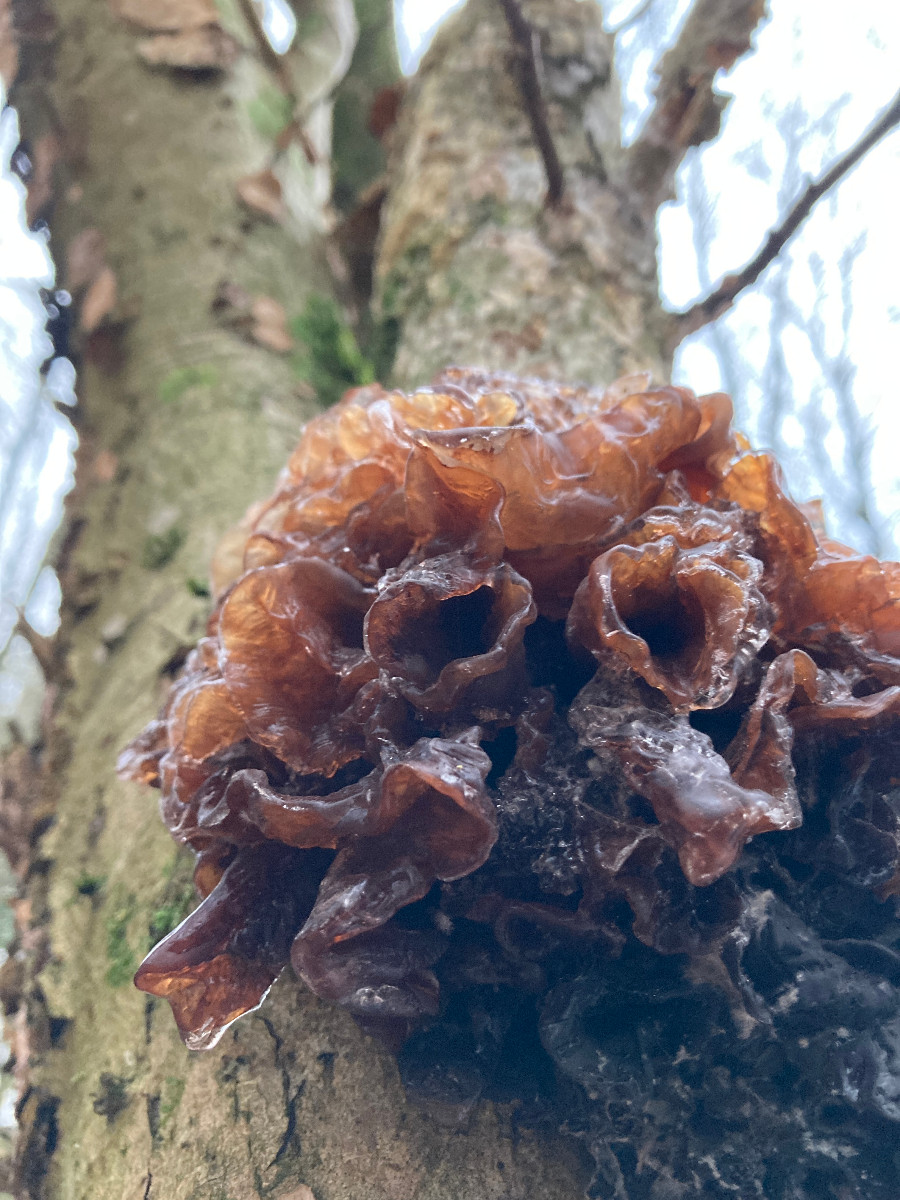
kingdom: Fungi
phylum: Basidiomycota
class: Tremellomycetes
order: Tremellales
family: Tremellaceae
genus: Phaeotremella
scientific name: Phaeotremella frondosa
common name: kæmpe-bævresvamp
